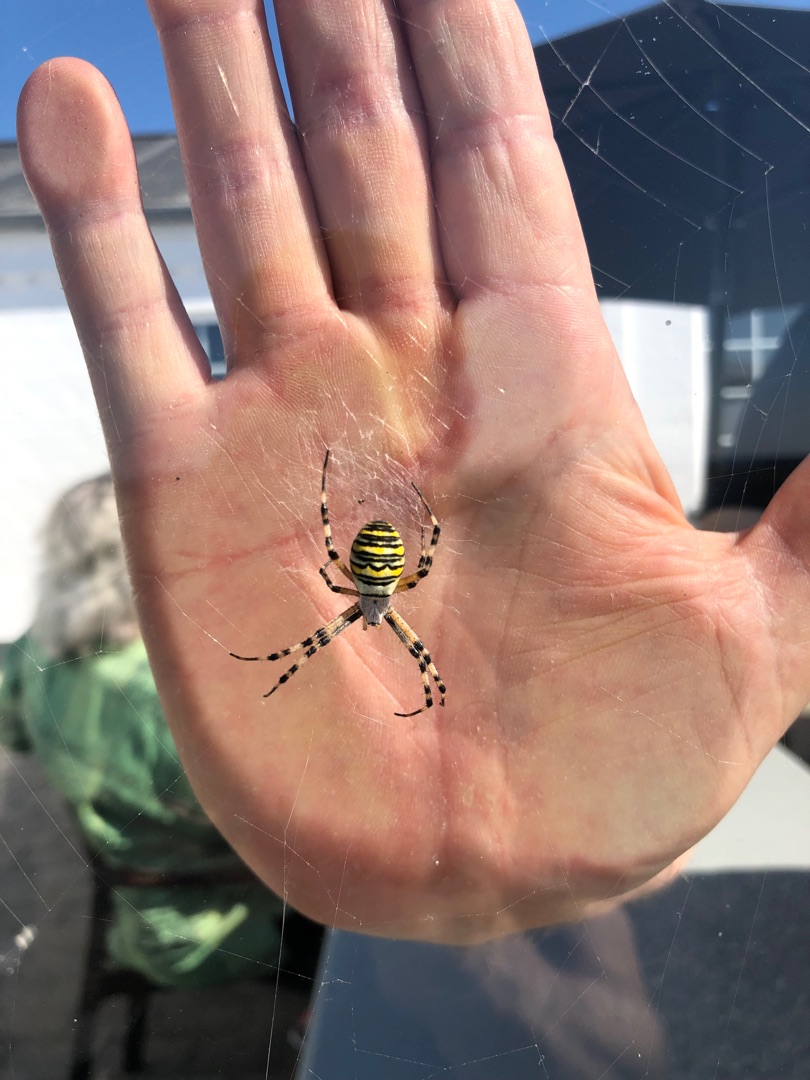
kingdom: Animalia
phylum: Arthropoda
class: Arachnida
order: Araneae
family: Araneidae
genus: Argiope
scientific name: Argiope bruennichi
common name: Hvepseedderkop
